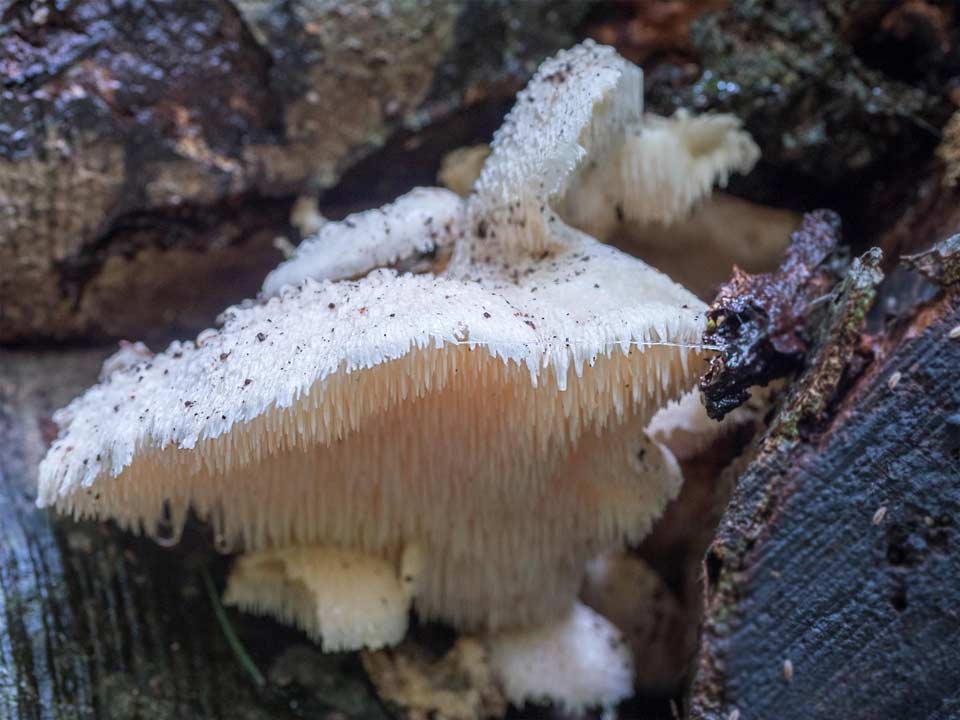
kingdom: Fungi
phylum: Basidiomycota
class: Agaricomycetes
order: Russulales
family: Hericiaceae
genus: Hericium
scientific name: Hericium cirrhatum
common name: børstepigsvamp
